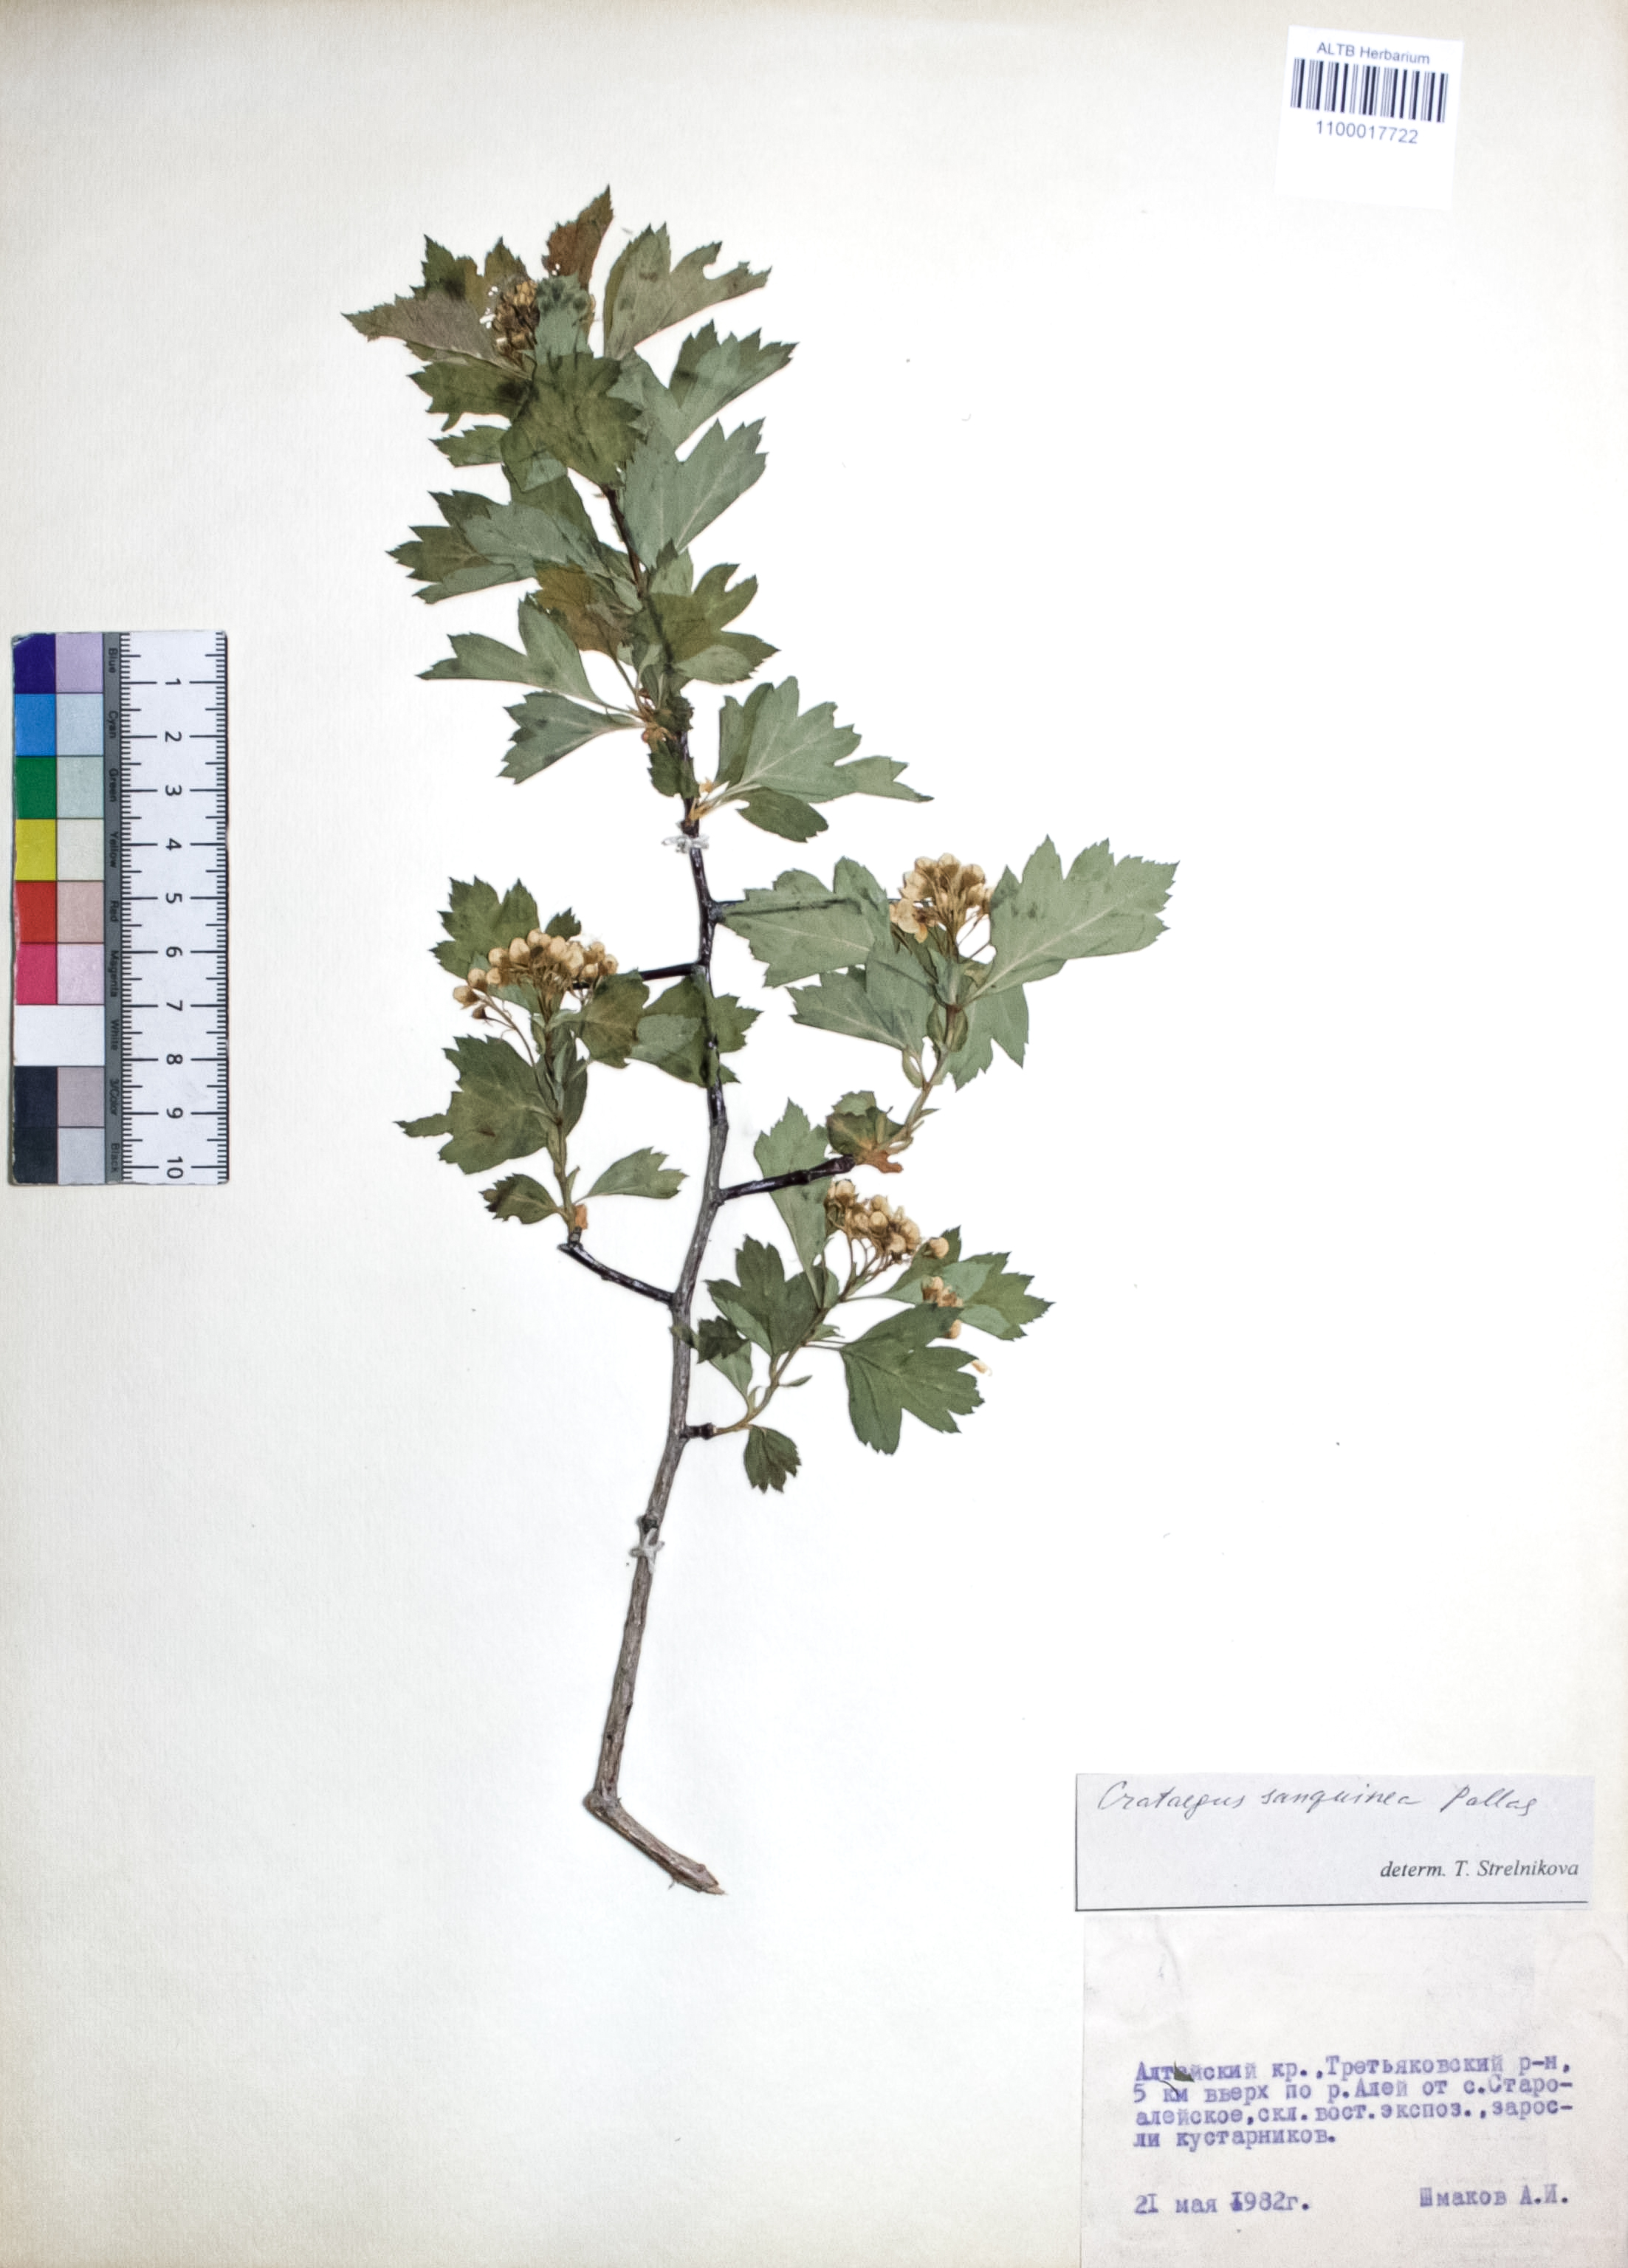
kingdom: Plantae
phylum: Tracheophyta
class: Magnoliopsida
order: Rosales
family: Rosaceae
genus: Crataegus
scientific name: Crataegus sanguinea
